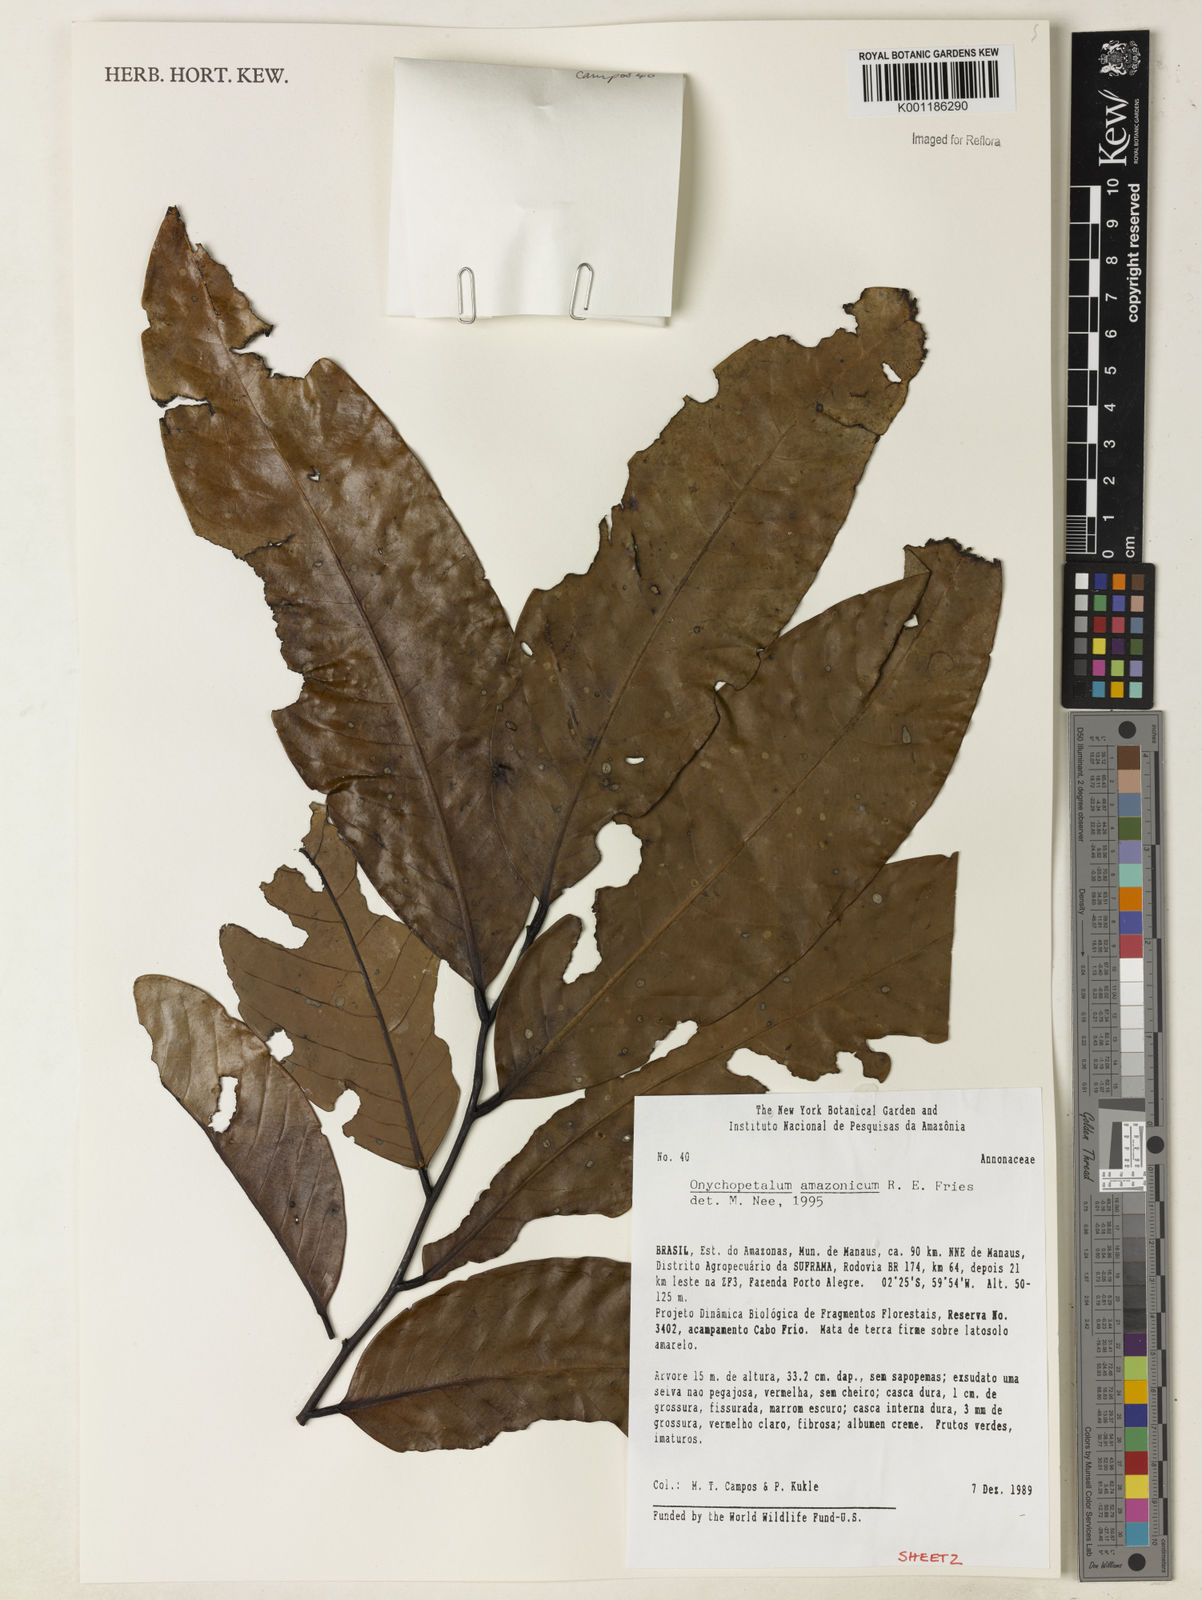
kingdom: Plantae
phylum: Tracheophyta
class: Magnoliopsida
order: Magnoliales
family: Annonaceae
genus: Onychopetalum
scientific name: Onychopetalum amazonicum
